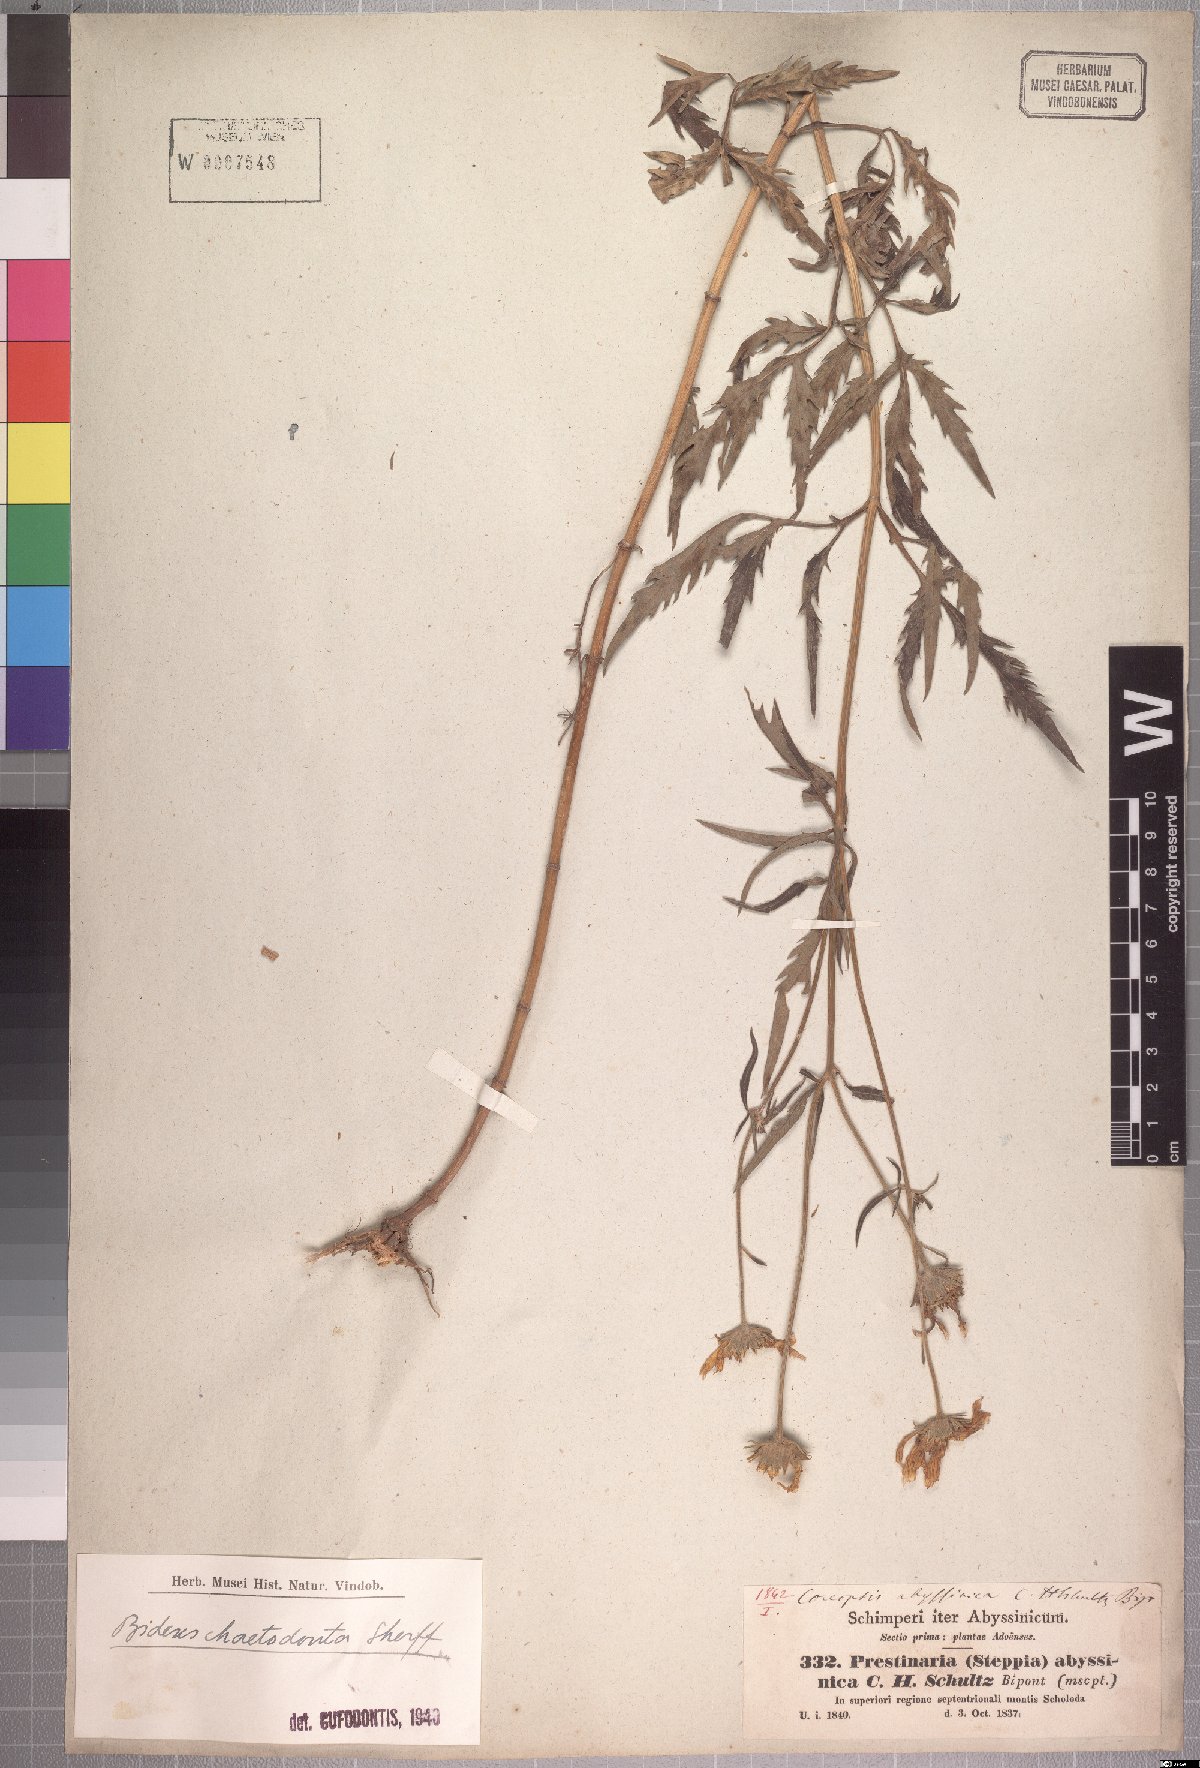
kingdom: Plantae
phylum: Tracheophyta
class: Magnoliopsida
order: Asterales
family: Asteraceae
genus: Bidens
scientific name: Bidens camporum
